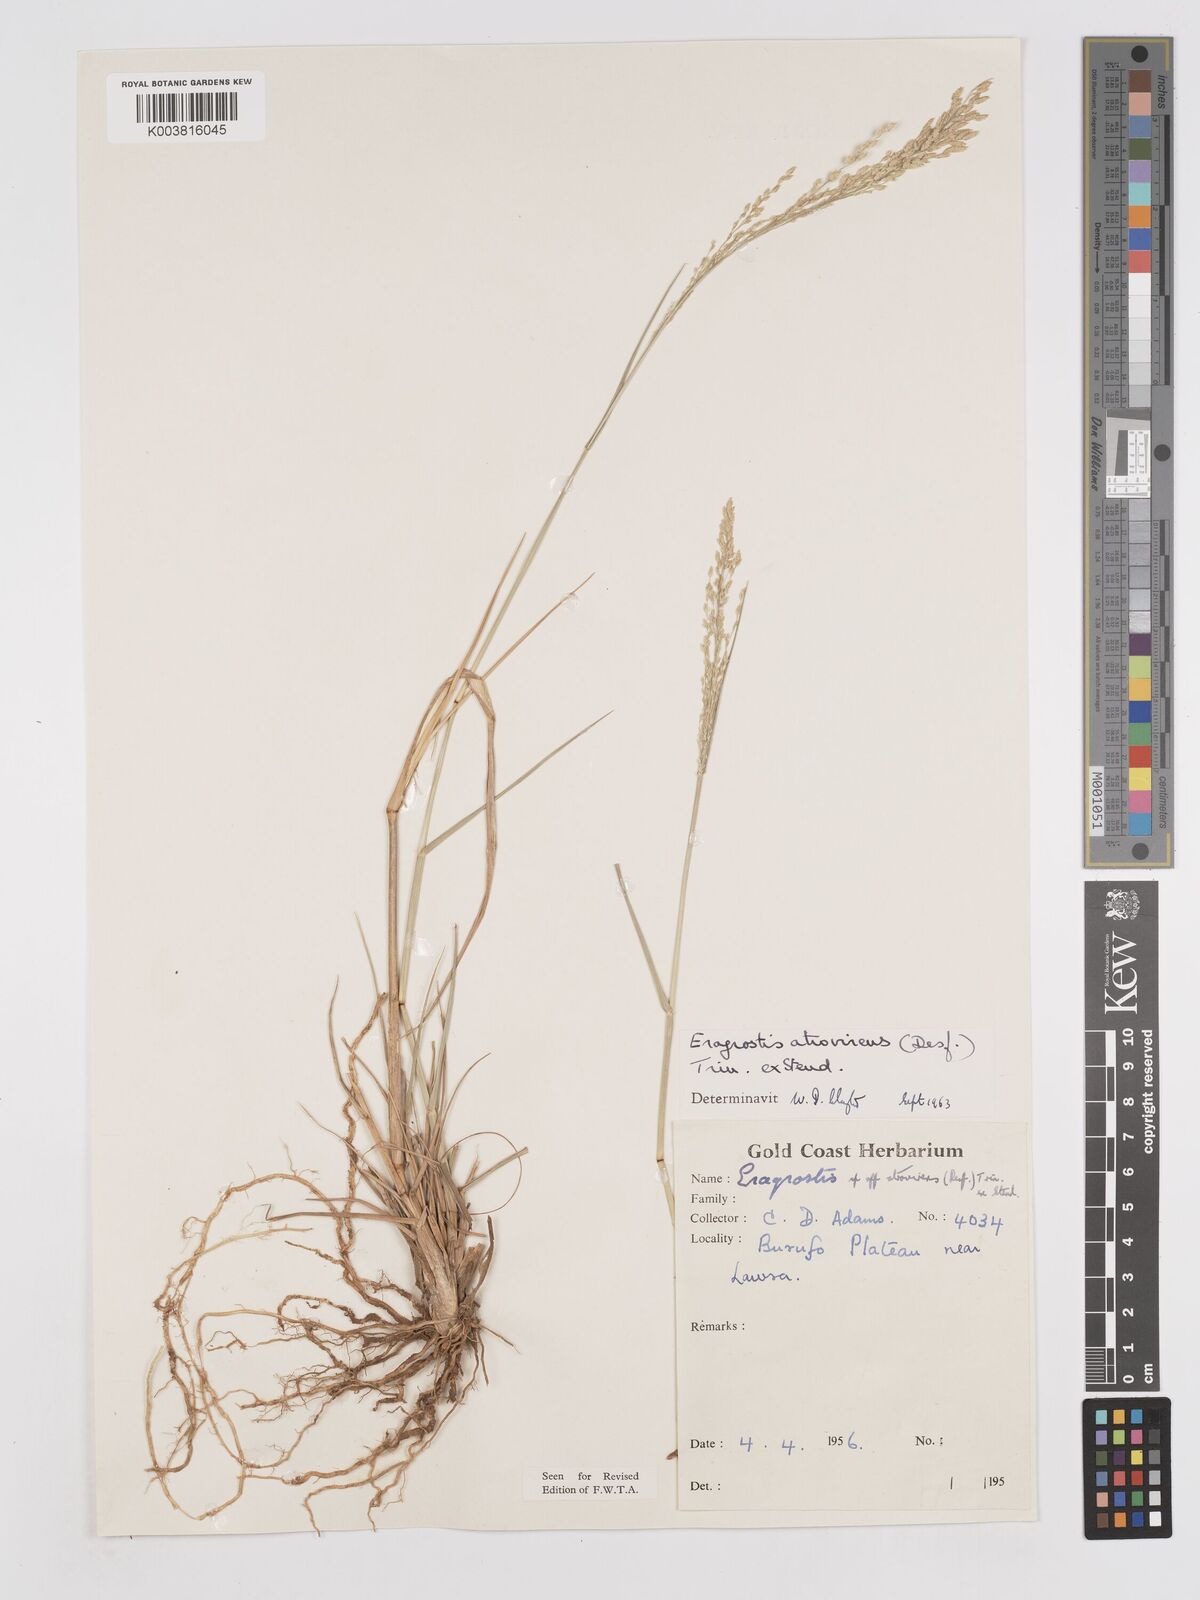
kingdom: Plantae
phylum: Tracheophyta
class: Liliopsida
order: Poales
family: Poaceae
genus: Eragrostis
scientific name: Eragrostis atrovirens
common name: Thalia lovegrass
